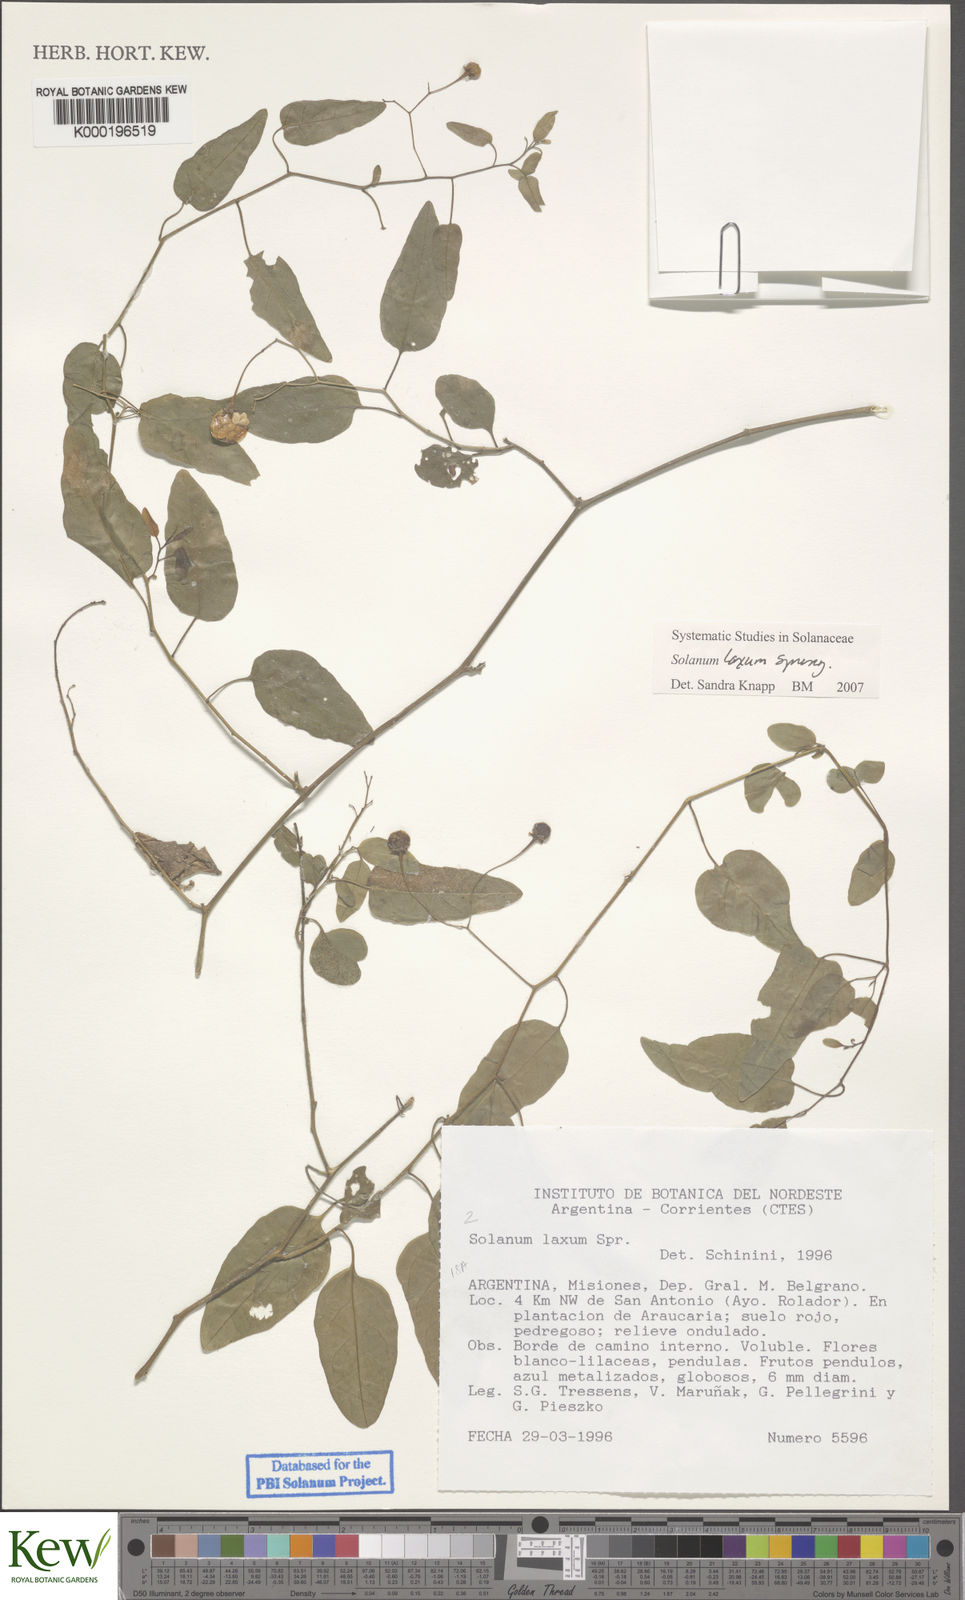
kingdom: Plantae
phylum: Tracheophyta
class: Magnoliopsida
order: Solanales
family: Solanaceae
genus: Solanum
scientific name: Solanum laxum
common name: Nightshade
